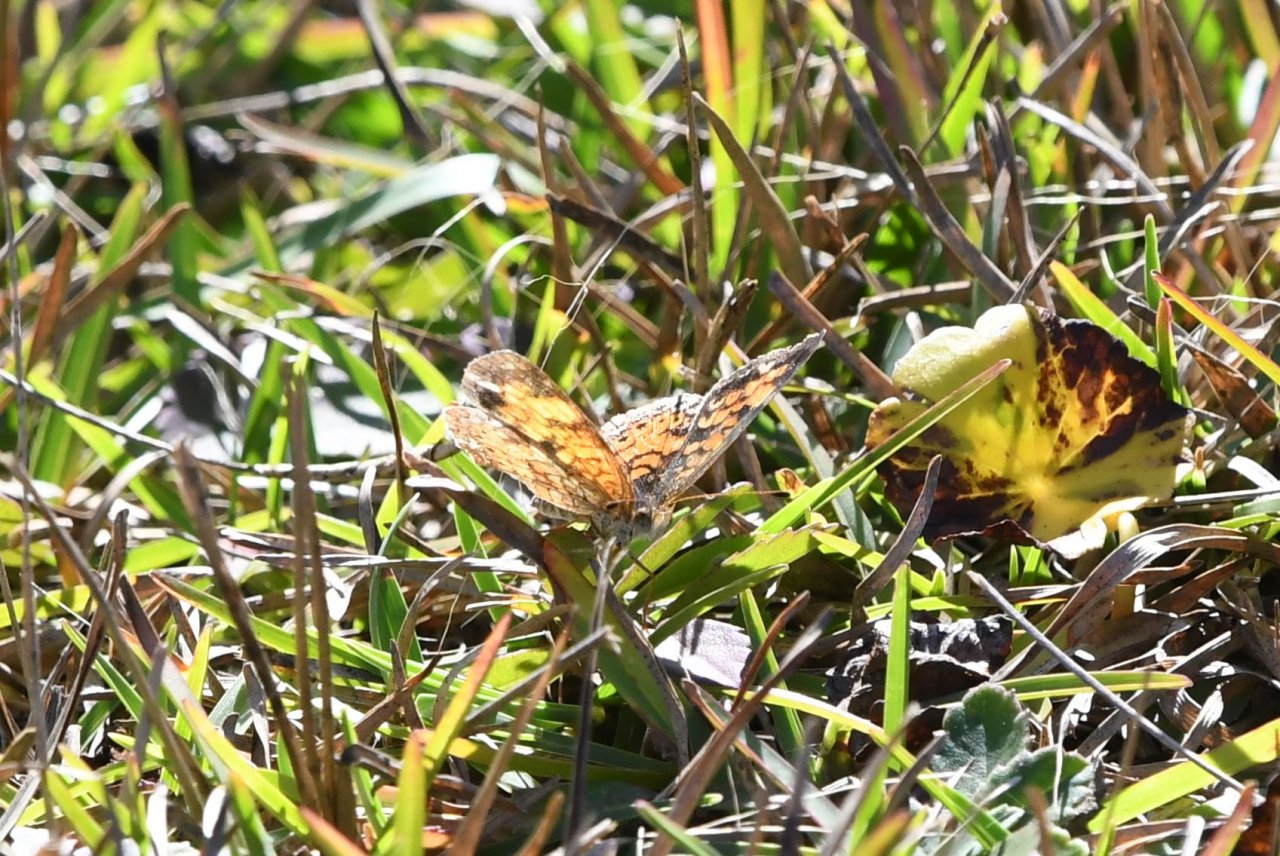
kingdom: Animalia
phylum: Arthropoda
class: Insecta
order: Lepidoptera
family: Nymphalidae
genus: Phyciodes
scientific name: Phyciodes tharos
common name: Pearl Crescent
